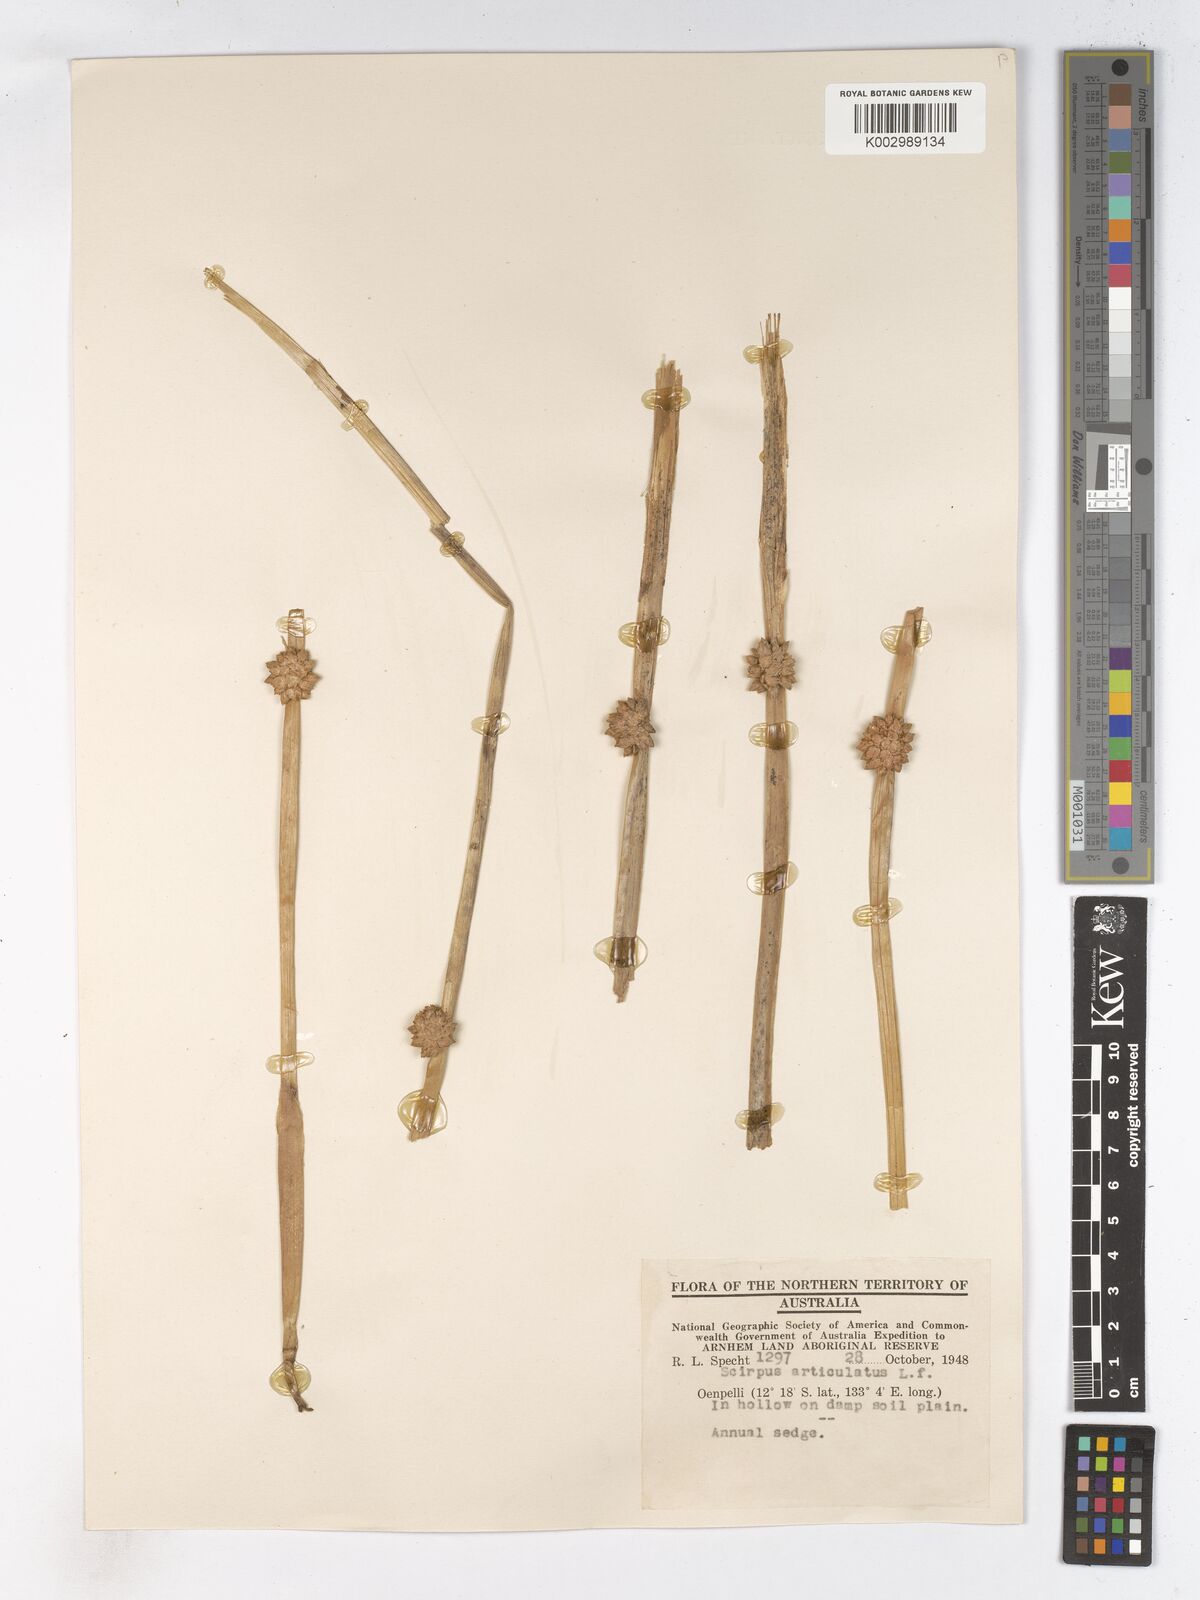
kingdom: Plantae
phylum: Tracheophyta
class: Liliopsida
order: Poales
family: Cyperaceae
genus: Schoenoplectiella
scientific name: Schoenoplectiella articulata
